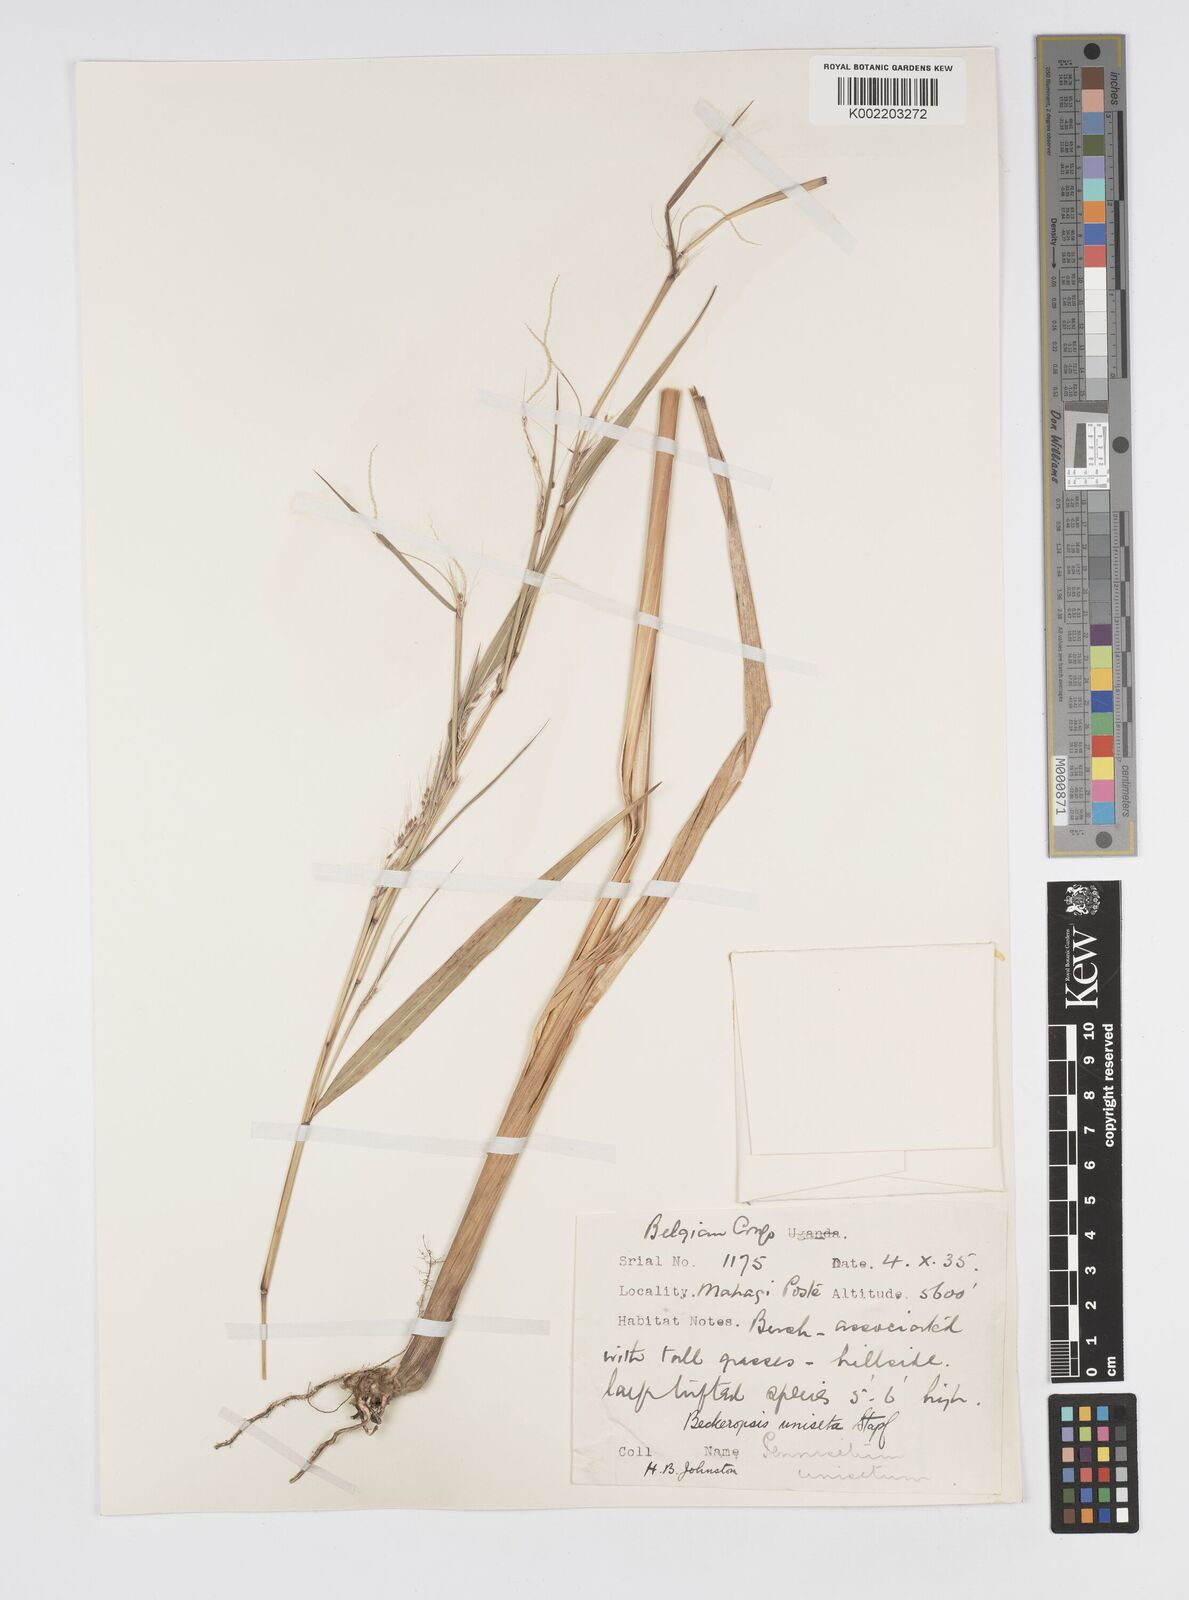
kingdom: Plantae
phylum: Tracheophyta
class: Liliopsida
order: Poales
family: Poaceae
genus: Cenchrus
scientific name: Cenchrus unisetus
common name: Natal grass
